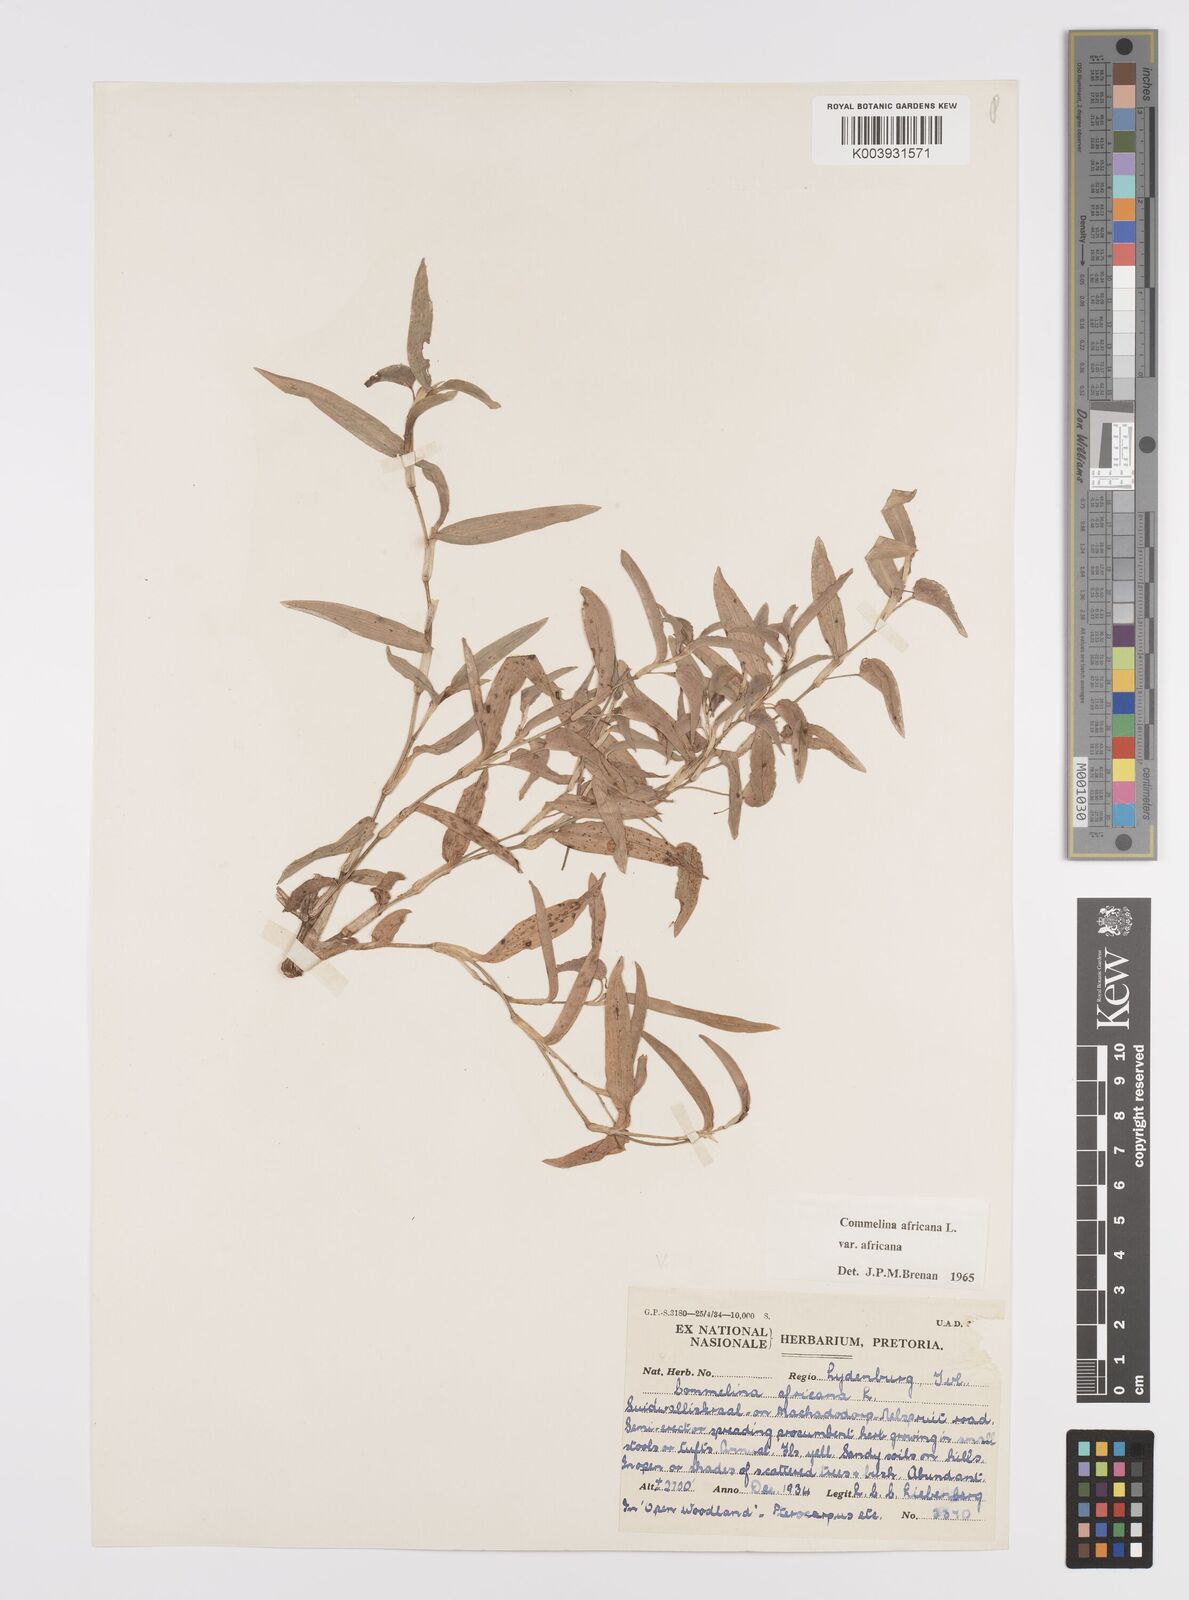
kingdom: Plantae
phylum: Tracheophyta
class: Liliopsida
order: Commelinales
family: Commelinaceae
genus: Commelina
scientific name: Commelina africana
